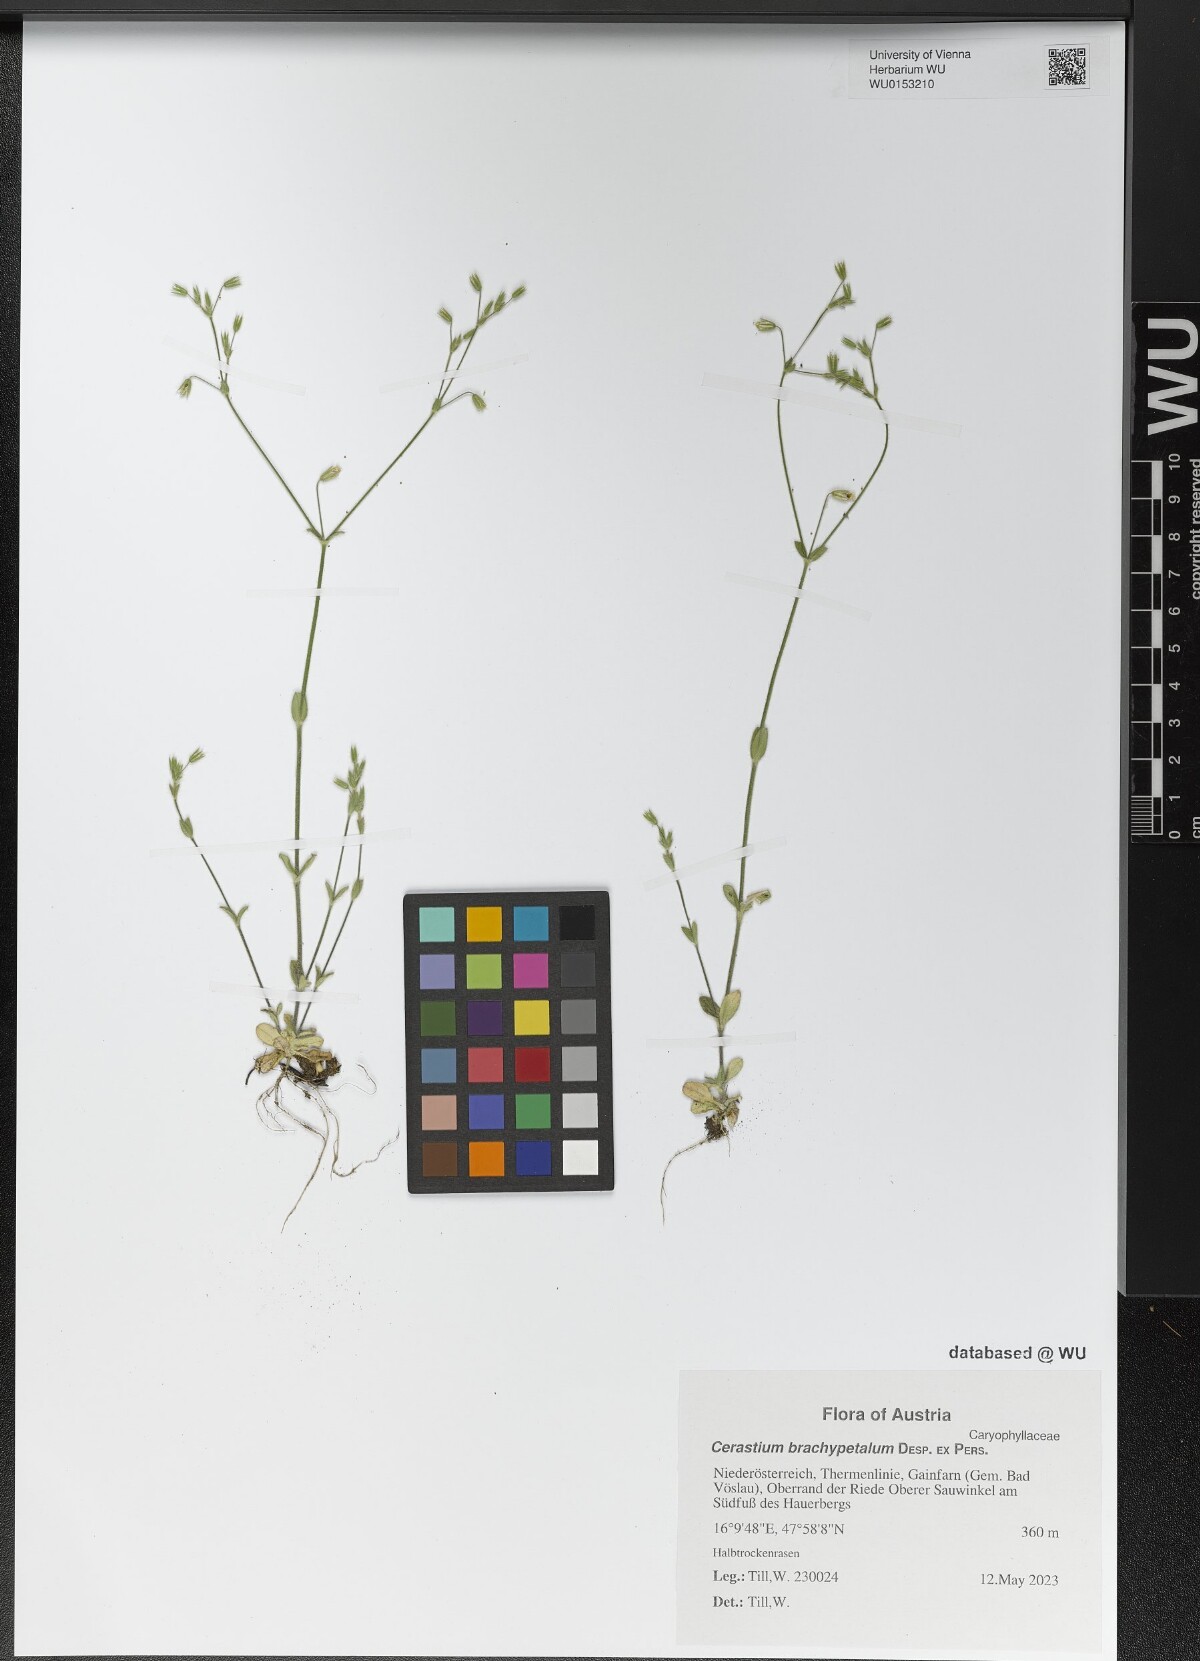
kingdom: Plantae
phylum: Tracheophyta
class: Magnoliopsida
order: Caryophyllales
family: Caryophyllaceae
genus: Cerastium
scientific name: Cerastium brachypetalum
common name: Grey mouse-ear
